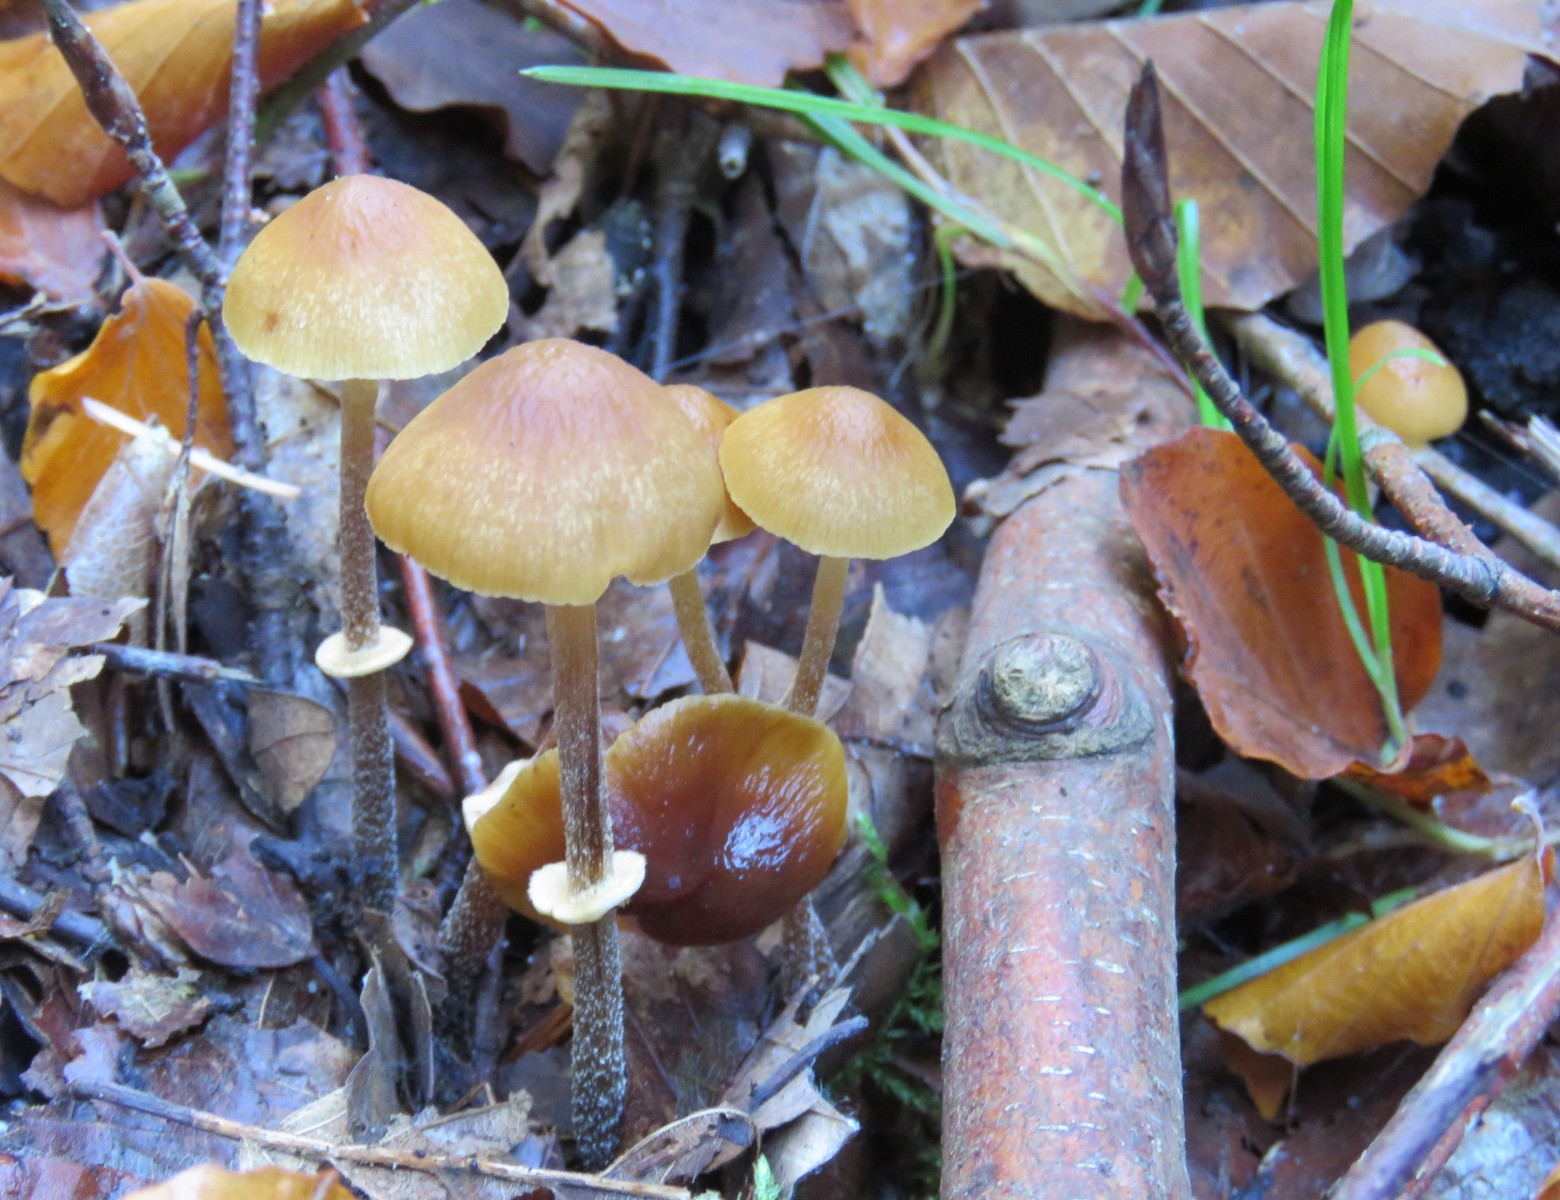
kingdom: Fungi
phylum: Basidiomycota
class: Agaricomycetes
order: Agaricales
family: Bolbitiaceae
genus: Pholiotina
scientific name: Pholiotina teneroides
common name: tosporet dansehat
